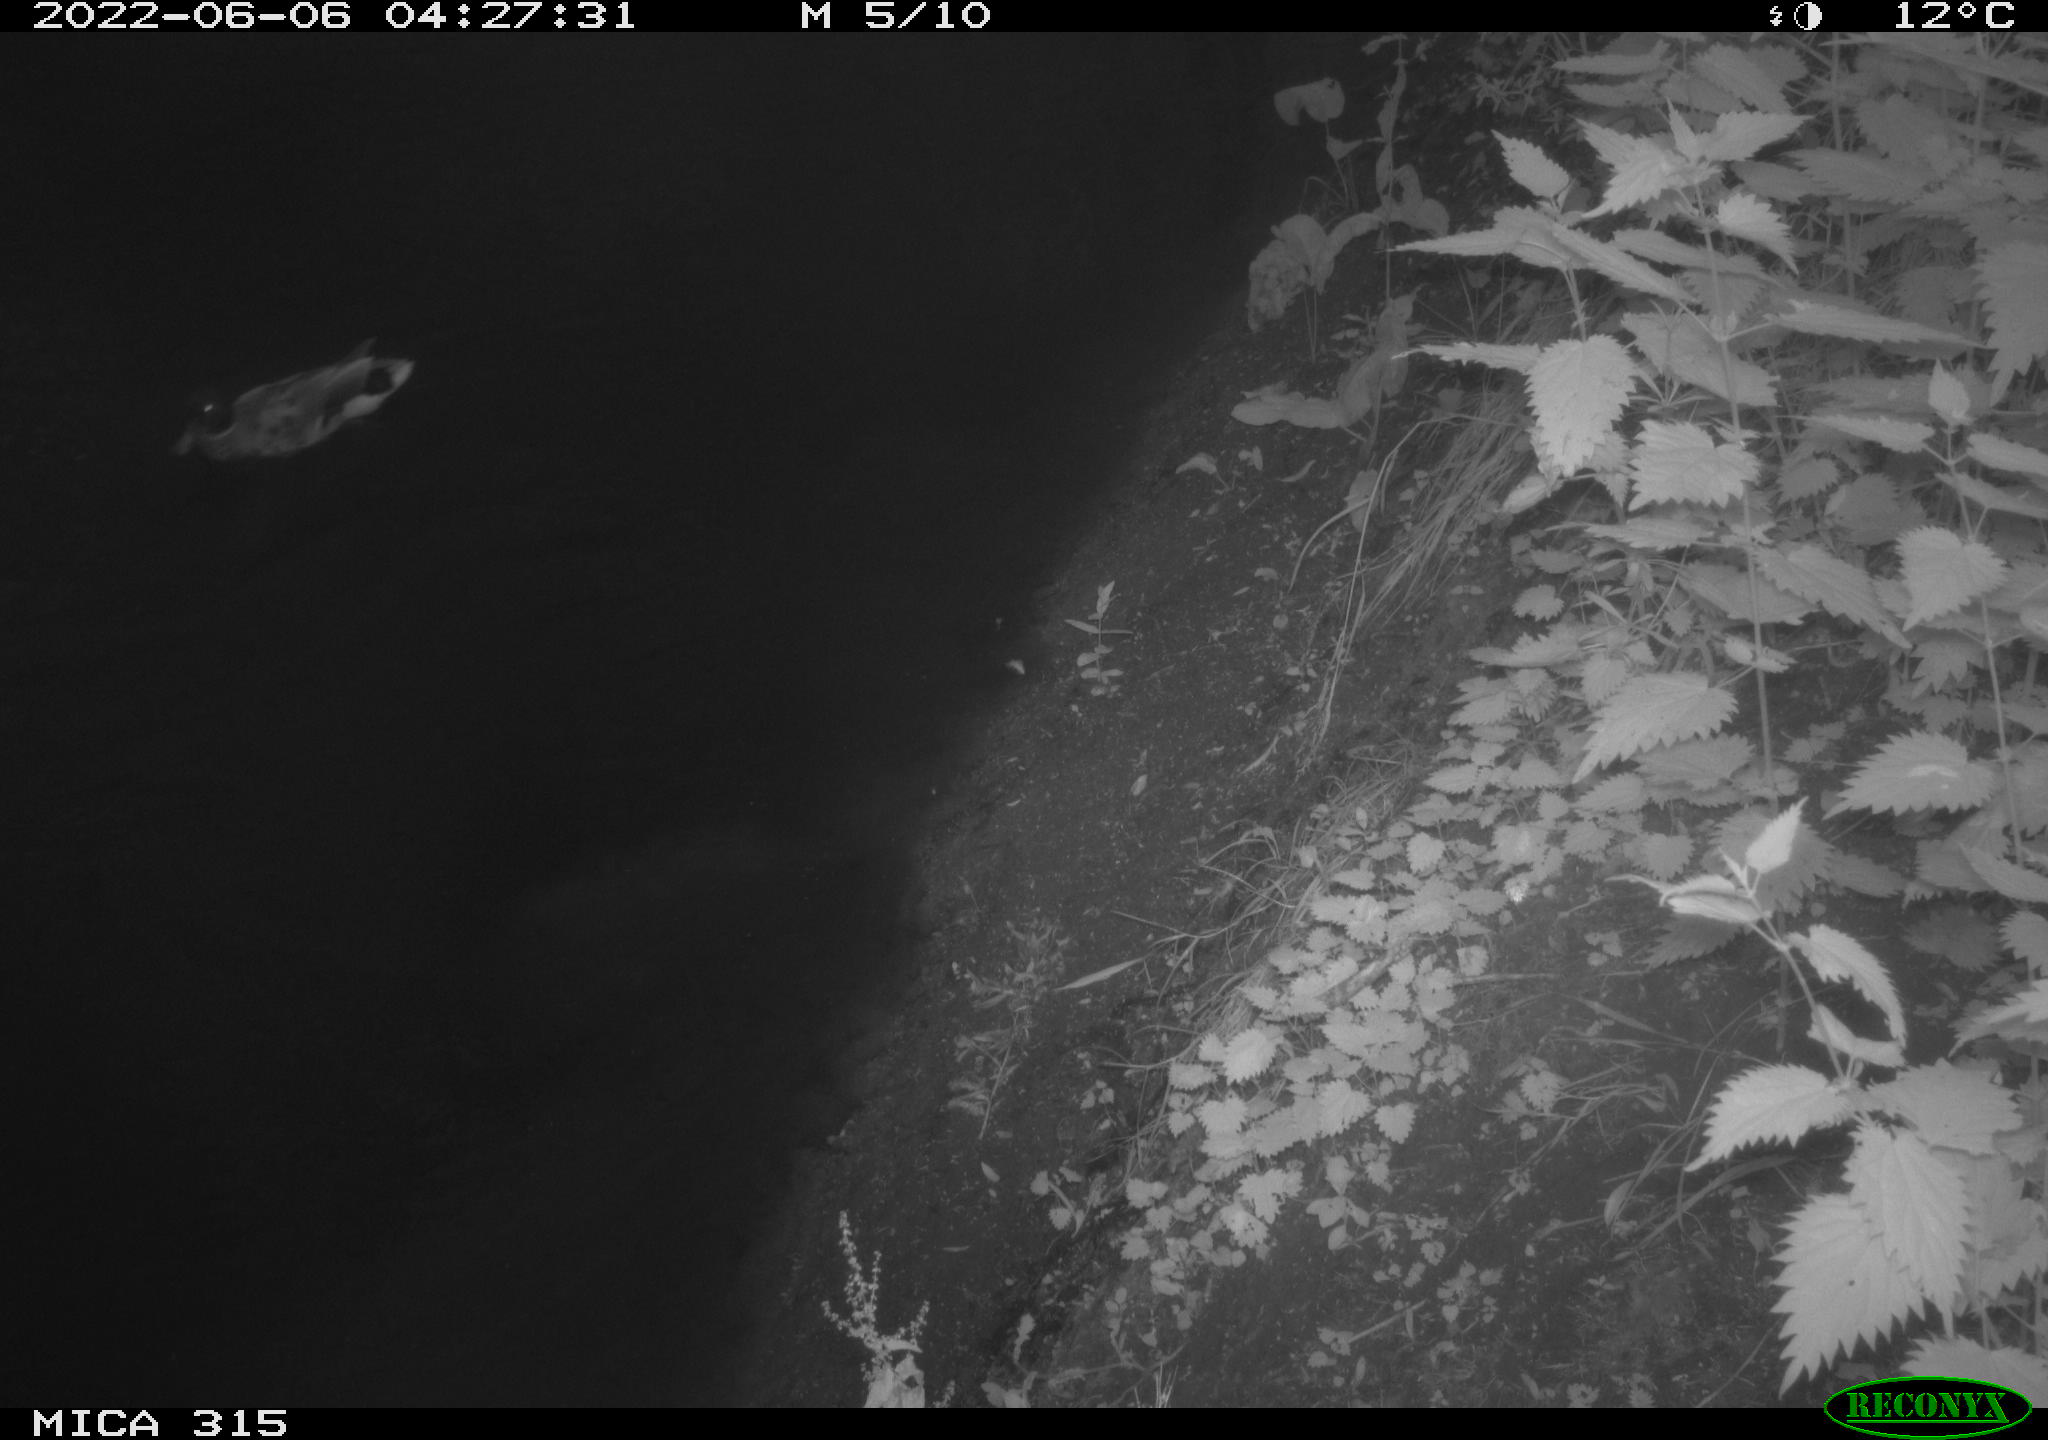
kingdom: Animalia
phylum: Chordata
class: Aves
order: Anseriformes
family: Anatidae
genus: Anas
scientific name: Anas
